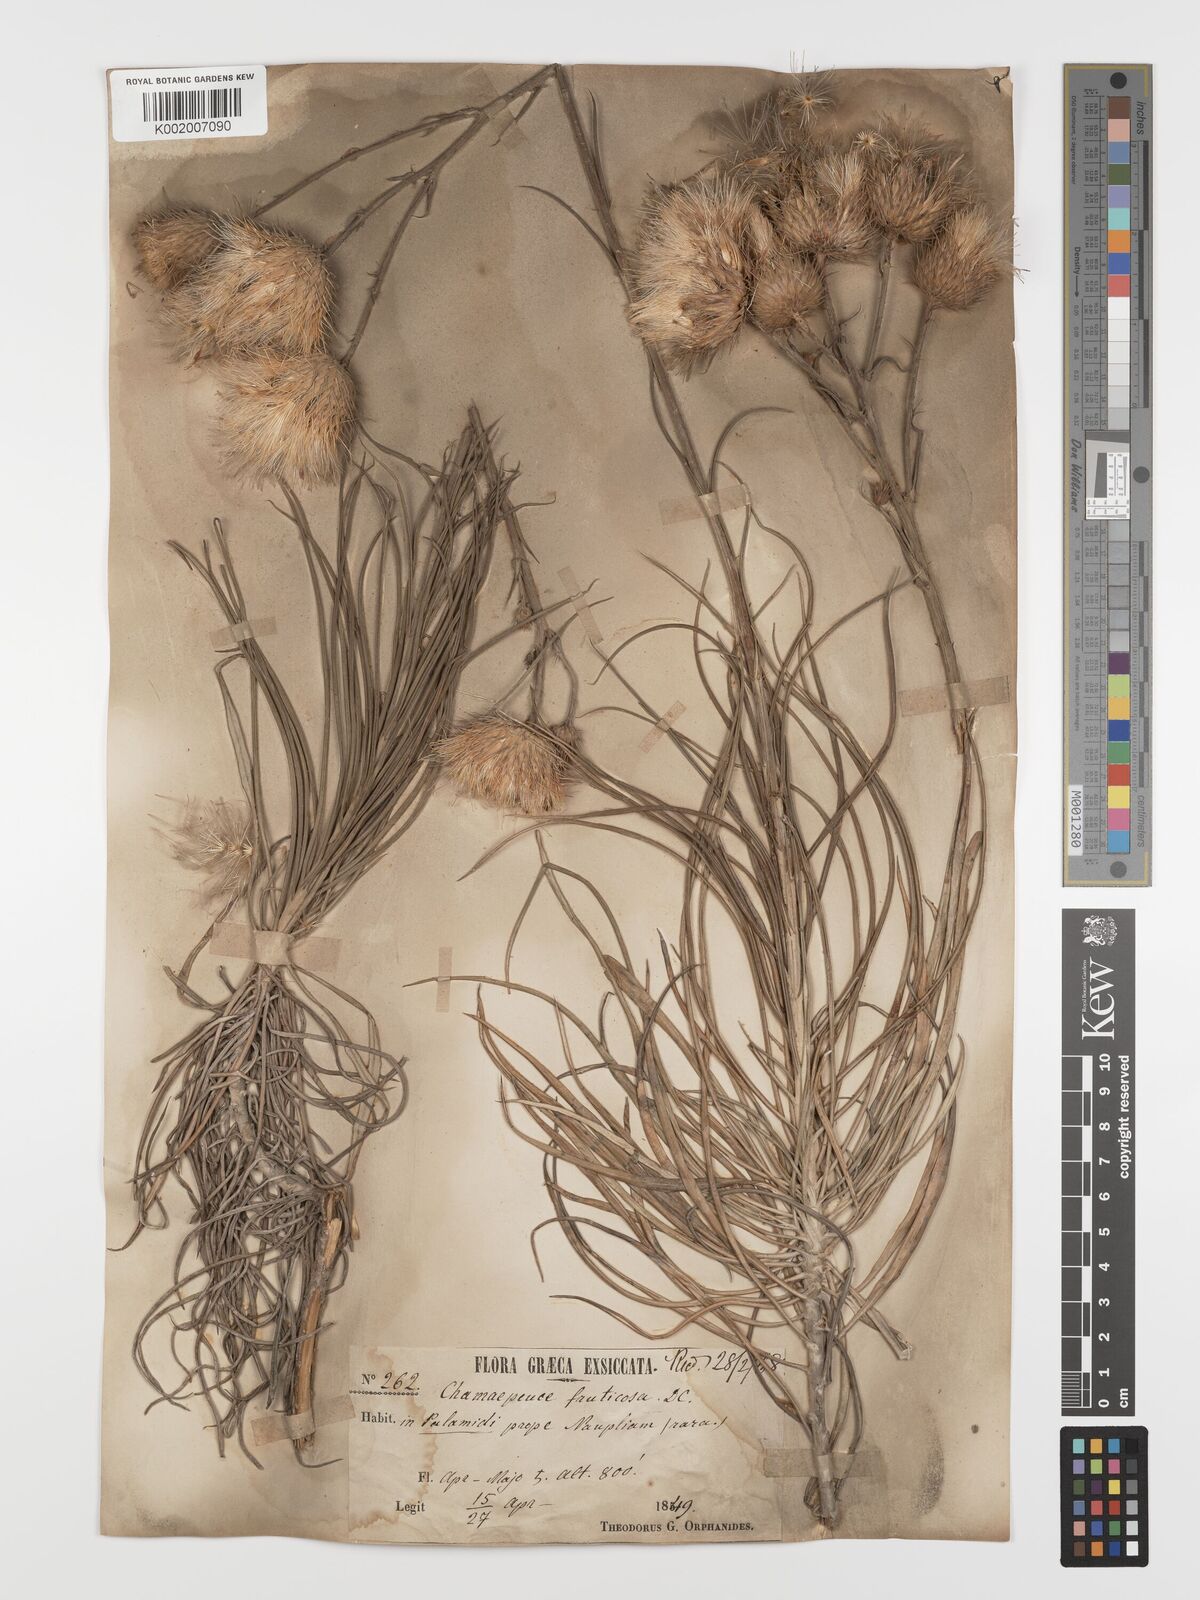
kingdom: Plantae
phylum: Tracheophyta
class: Magnoliopsida
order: Asterales
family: Asteraceae
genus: Ptilostemon
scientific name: Ptilostemon gnaphaloides
